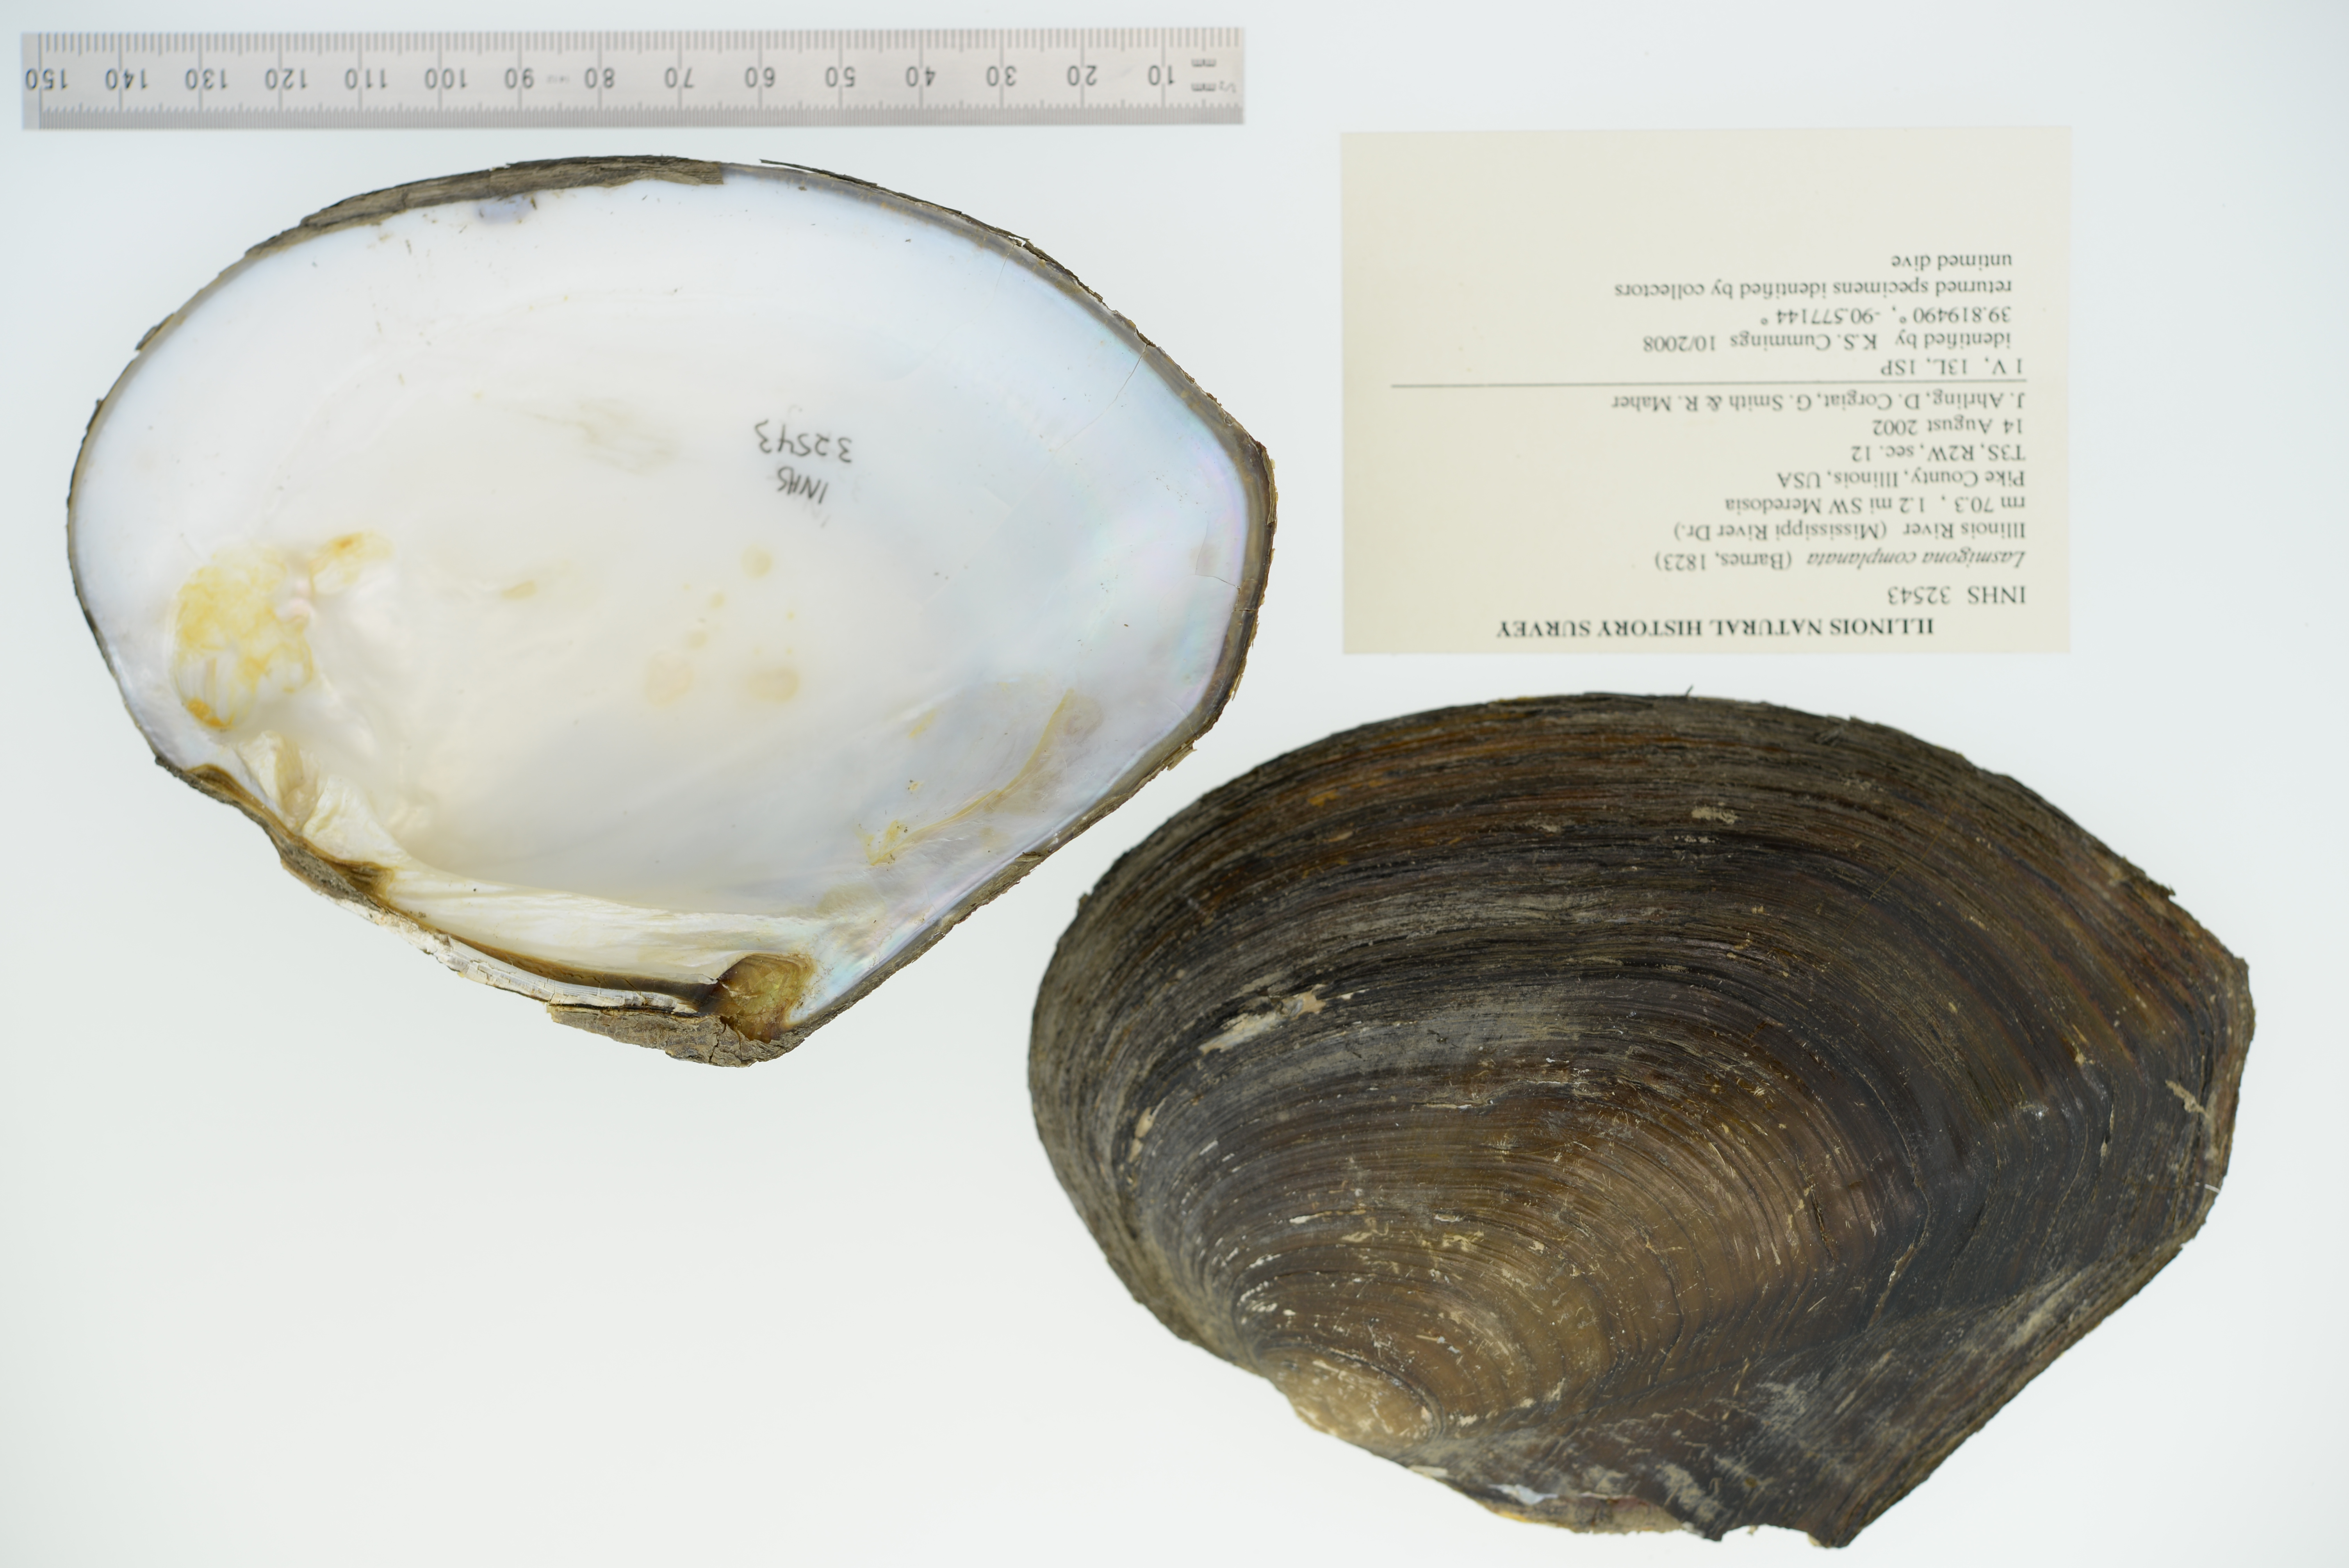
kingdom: Animalia
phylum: Mollusca
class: Bivalvia
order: Unionida
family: Unionidae
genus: Lasmigona
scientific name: Lasmigona complanata
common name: White heelsplitter
